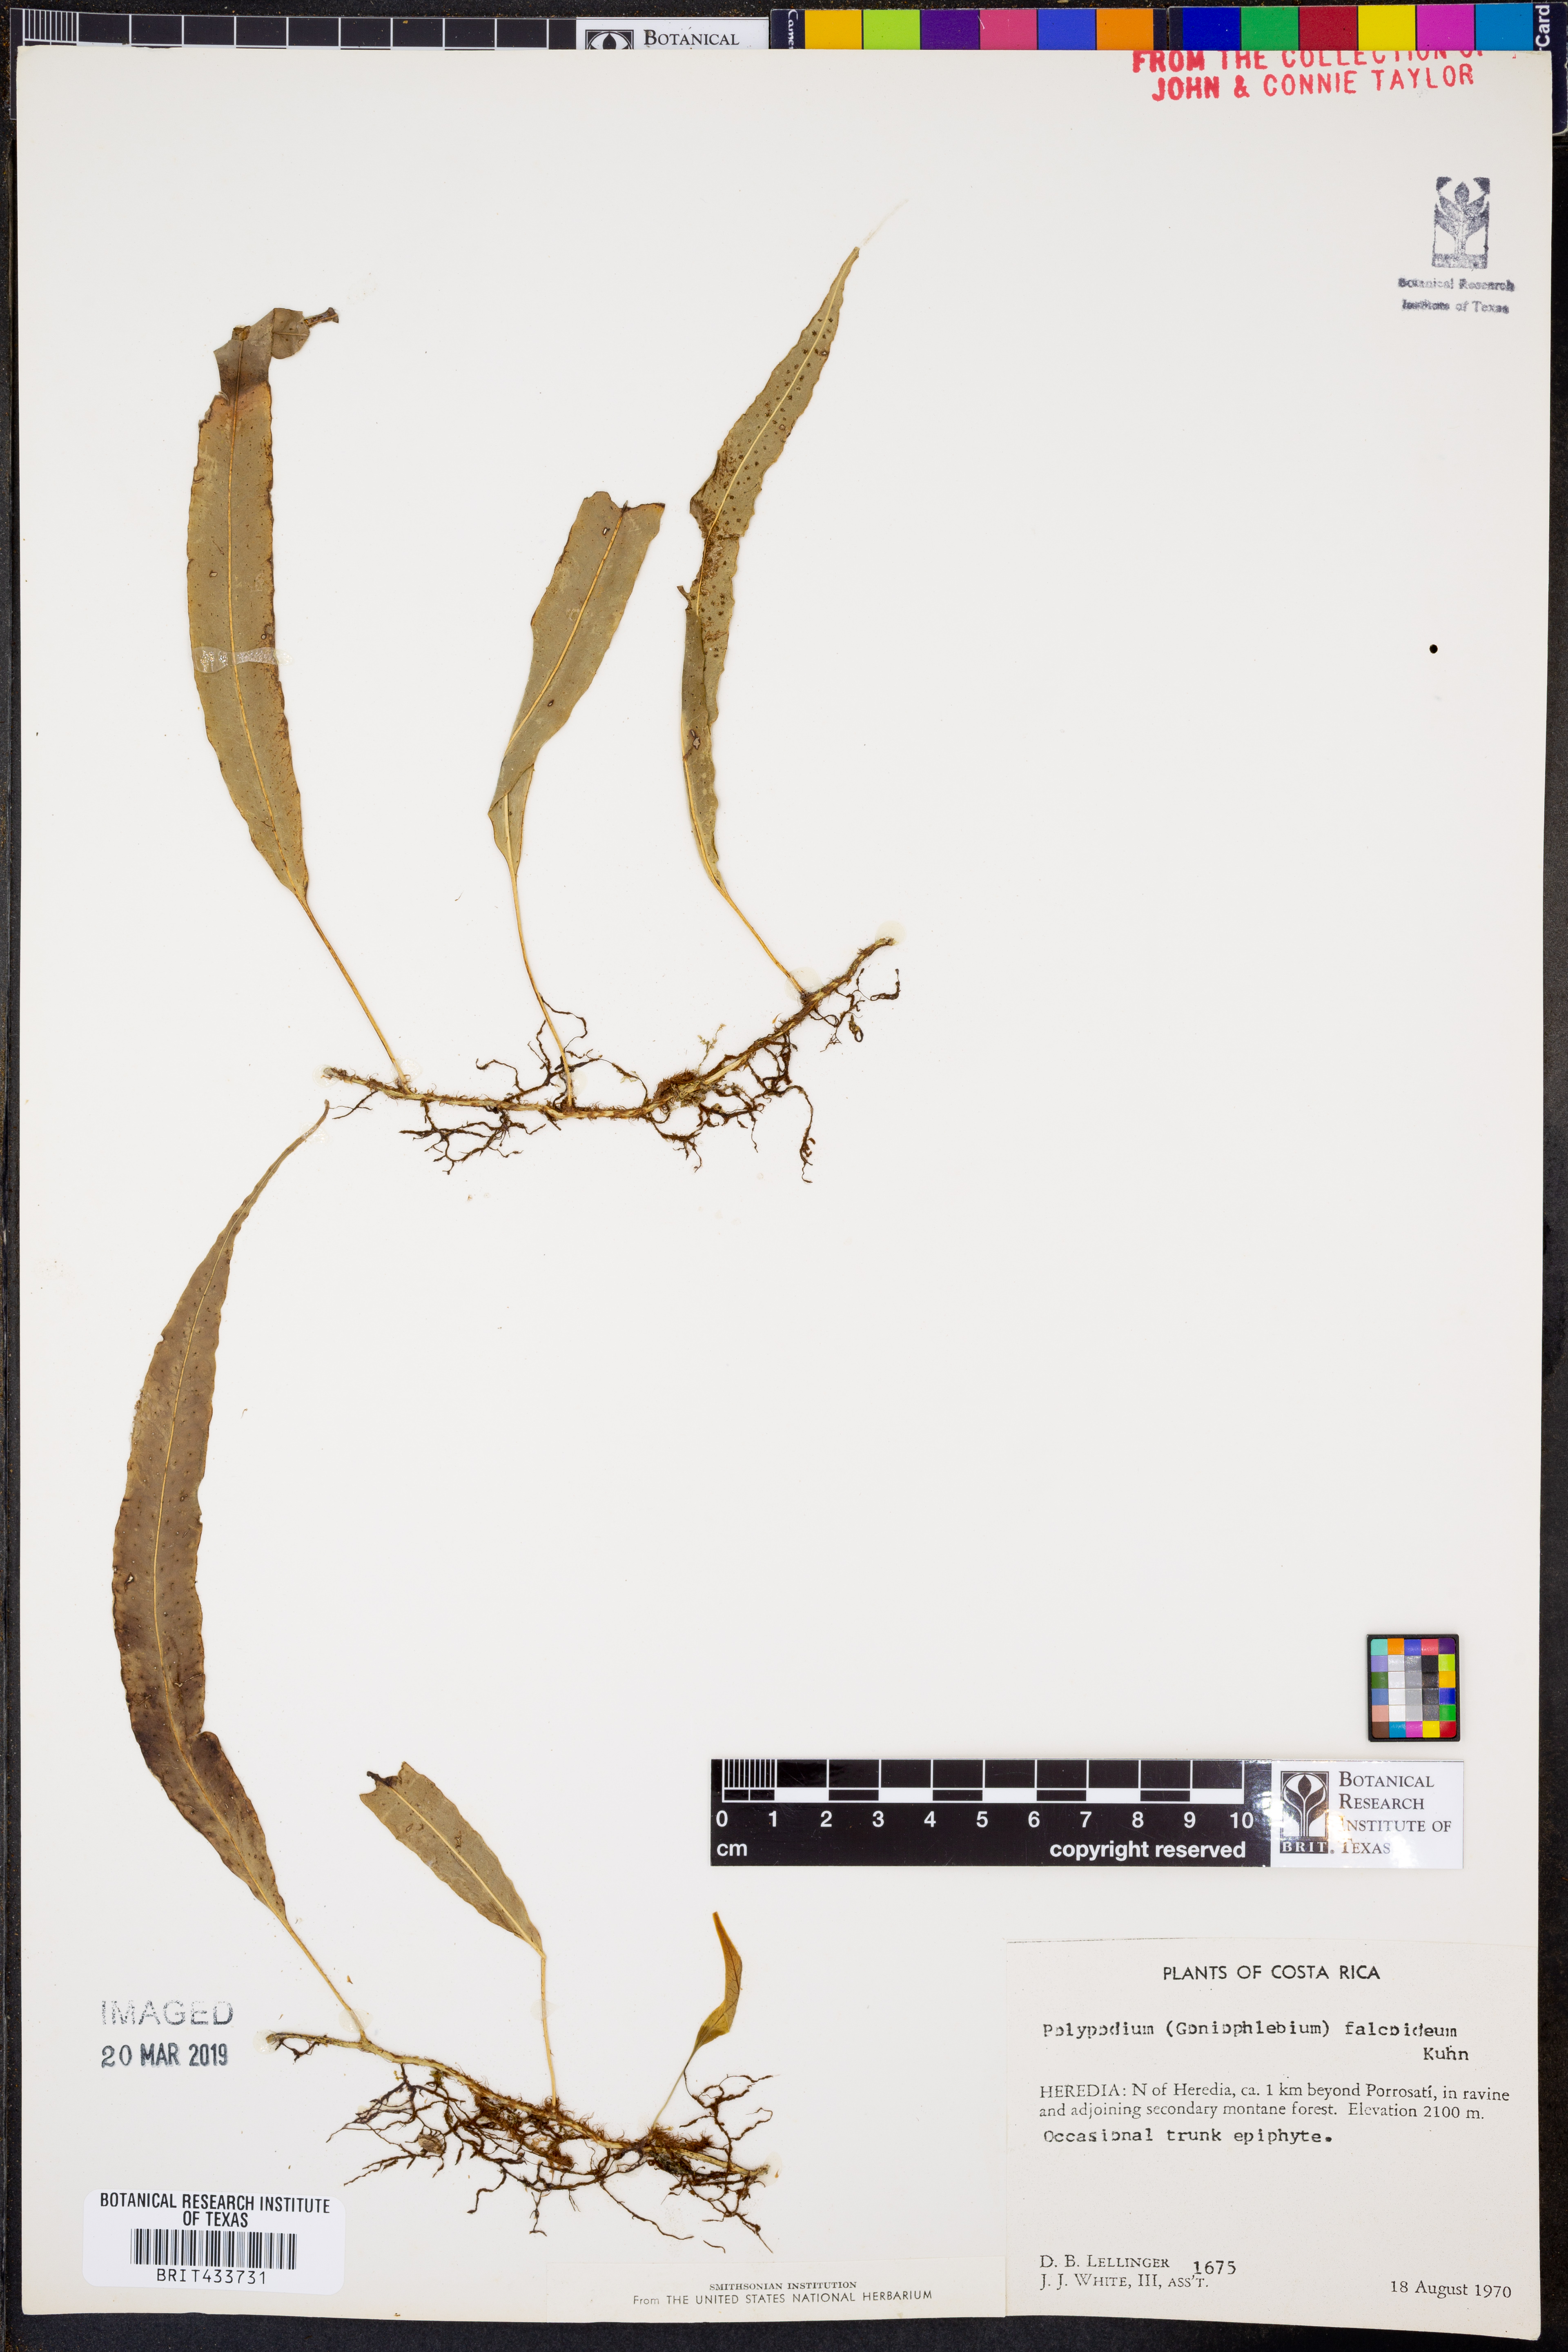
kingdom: Plantae
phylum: Tracheophyta
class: Polypodiopsida
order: Polypodiales
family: Polypodiaceae
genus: Campyloneurum
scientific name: Campyloneurum falcoideum
